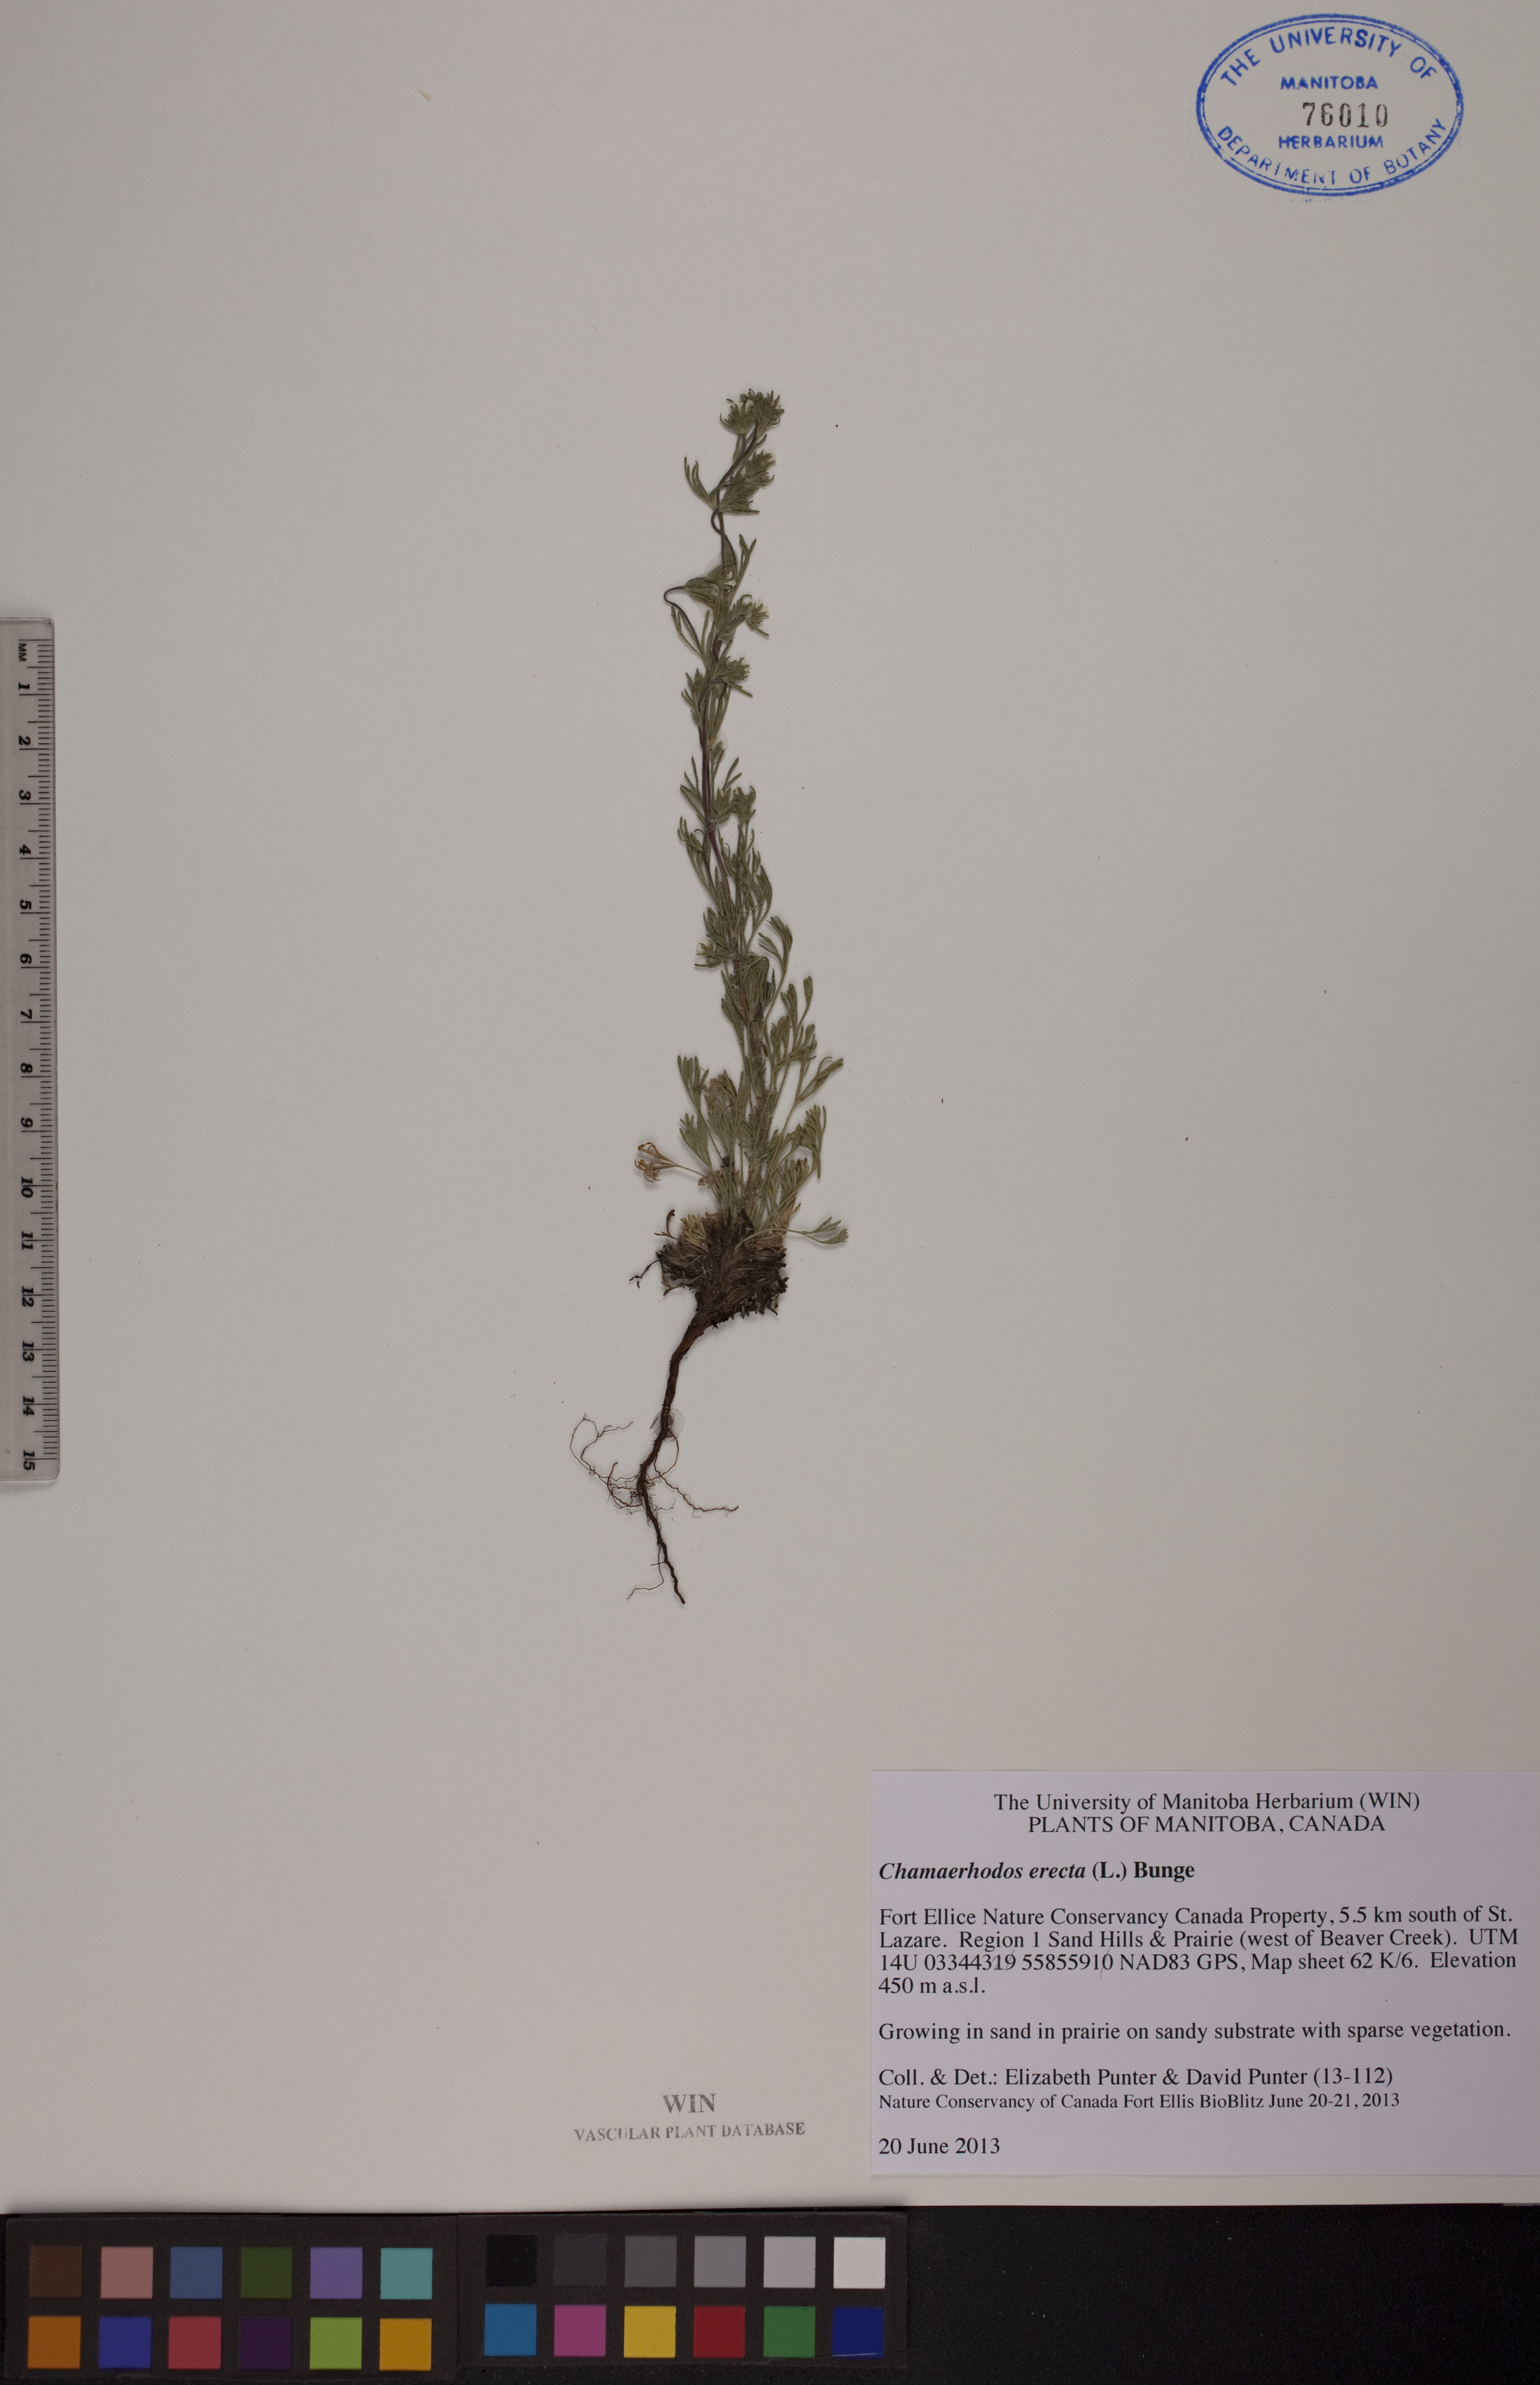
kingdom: Plantae
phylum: Tracheophyta
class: Magnoliopsida
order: Rosales
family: Rosaceae
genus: Chamaerhodos
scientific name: Chamaerhodos erecta
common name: American chamaerhodos
